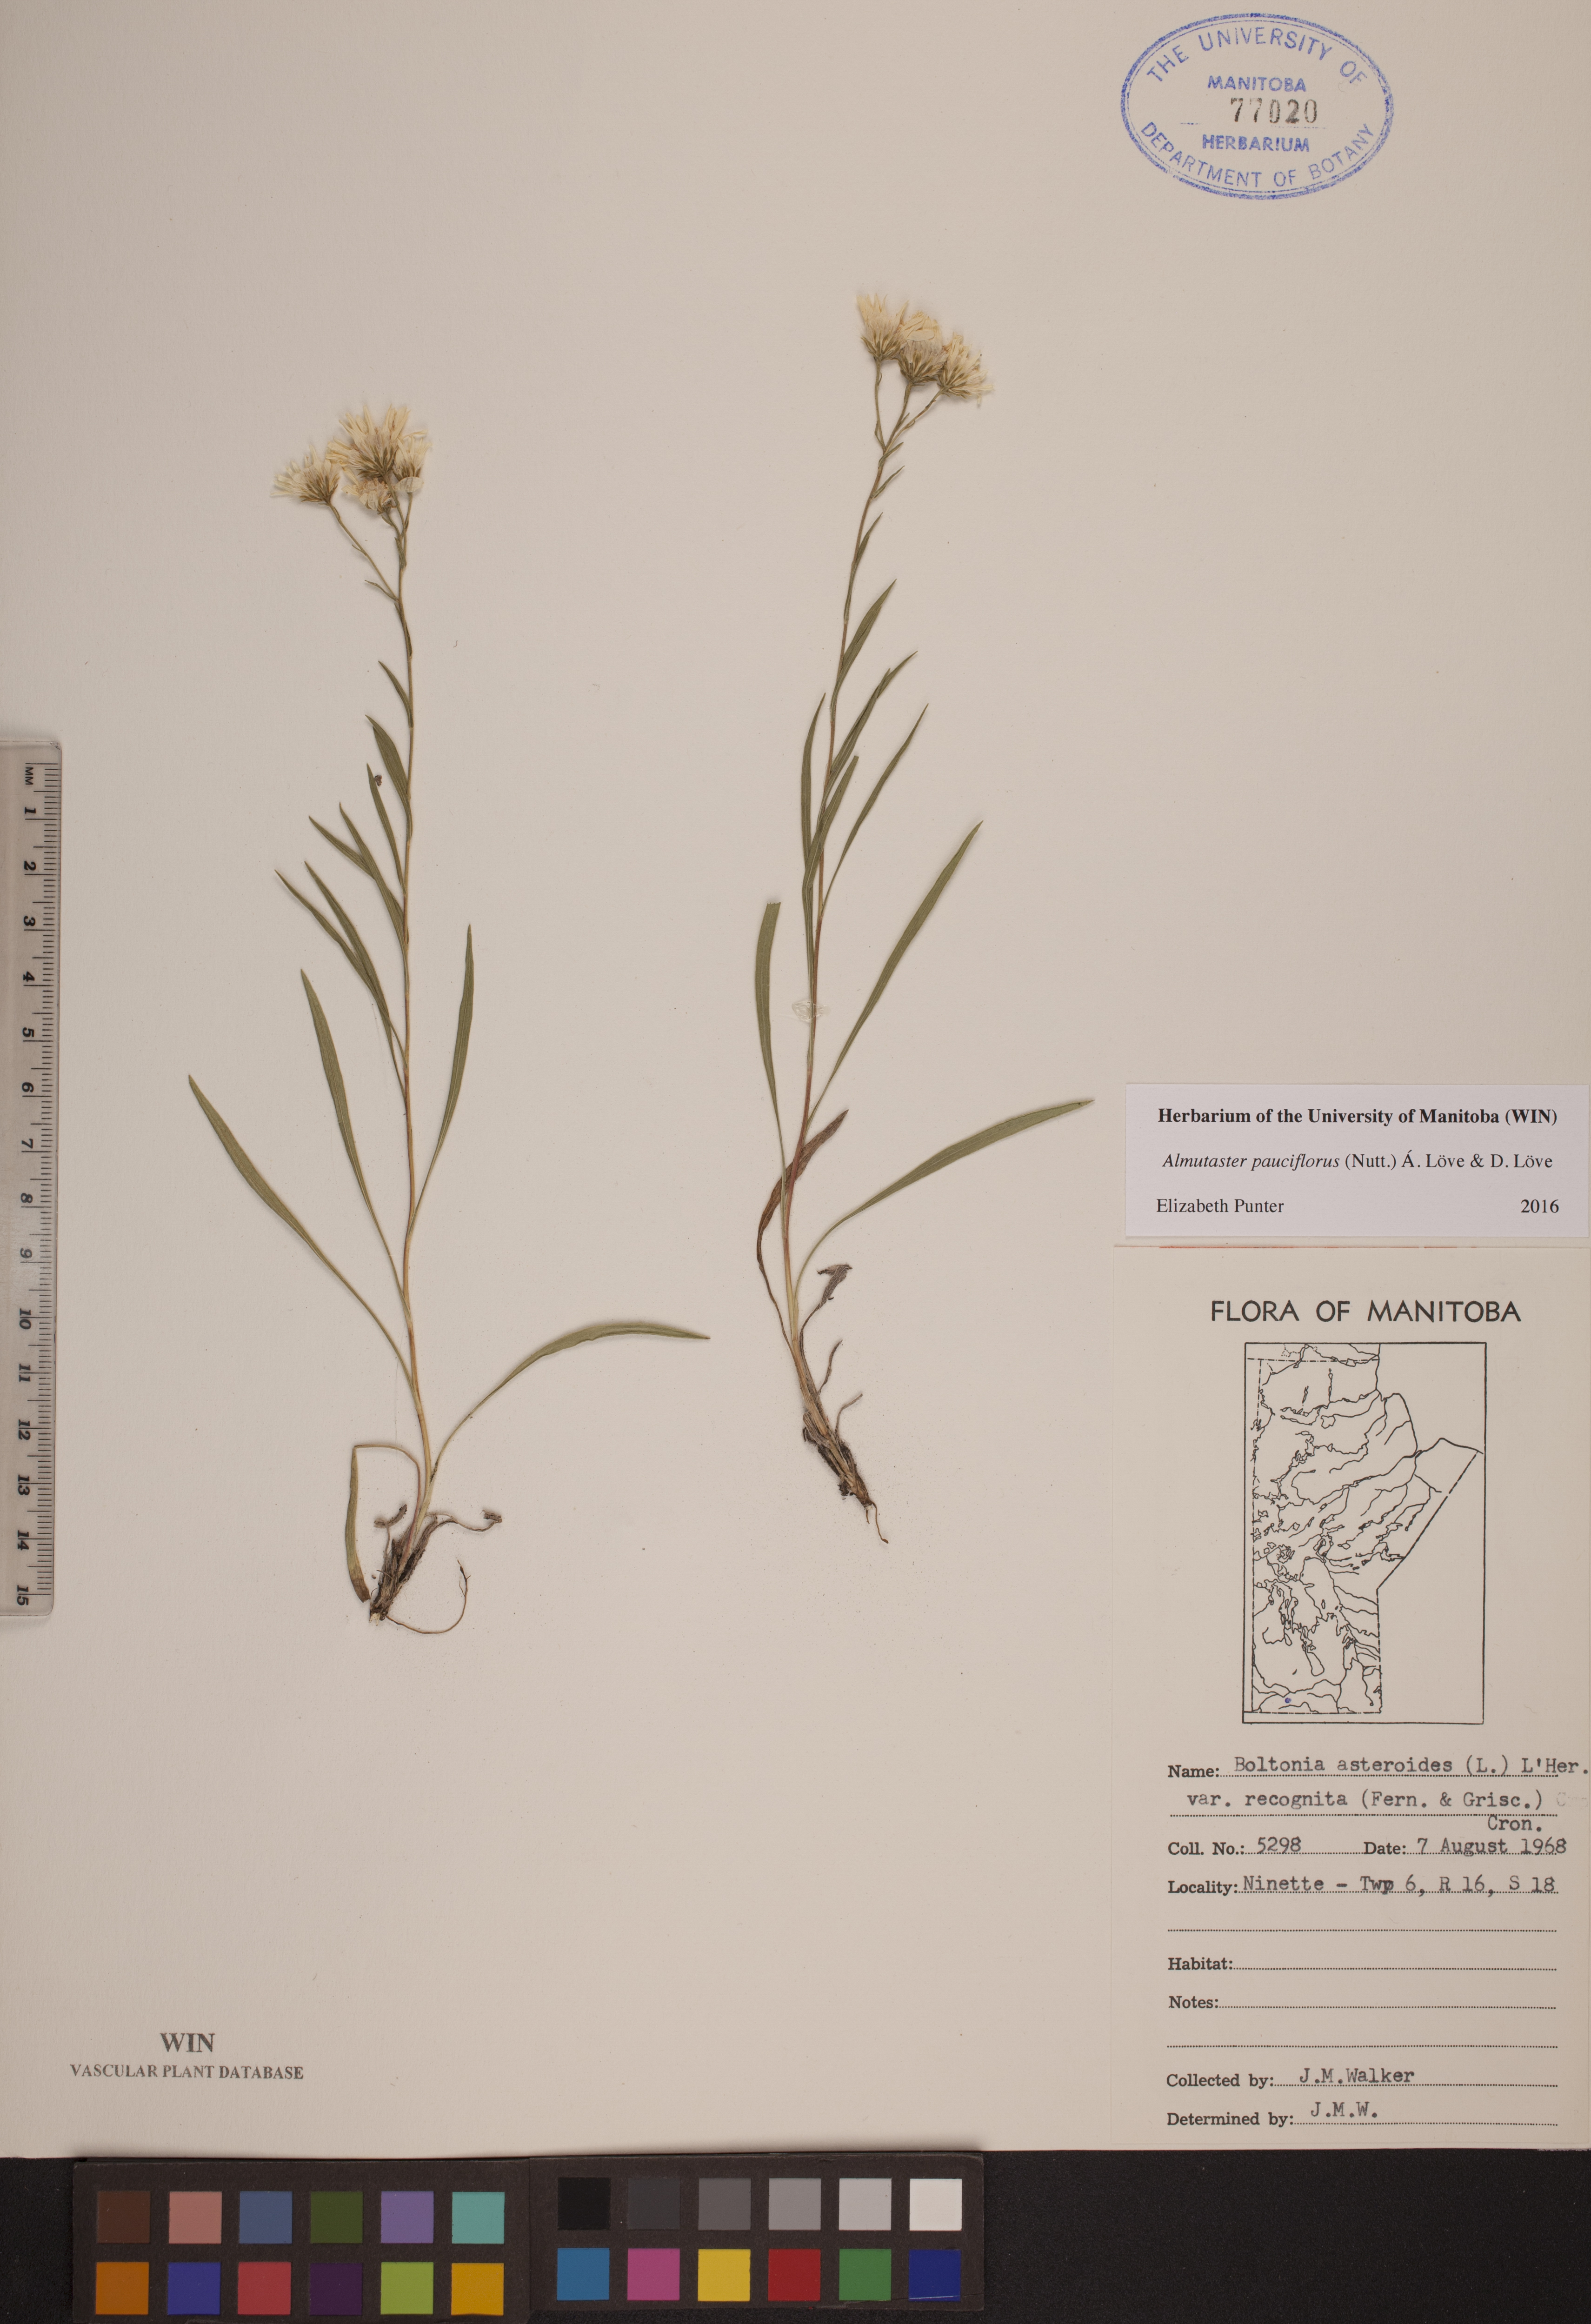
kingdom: Plantae
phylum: Tracheophyta
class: Magnoliopsida
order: Asterales
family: Asteraceae
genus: Almutaster
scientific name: Almutaster pauciflorus
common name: Alkaline aster
